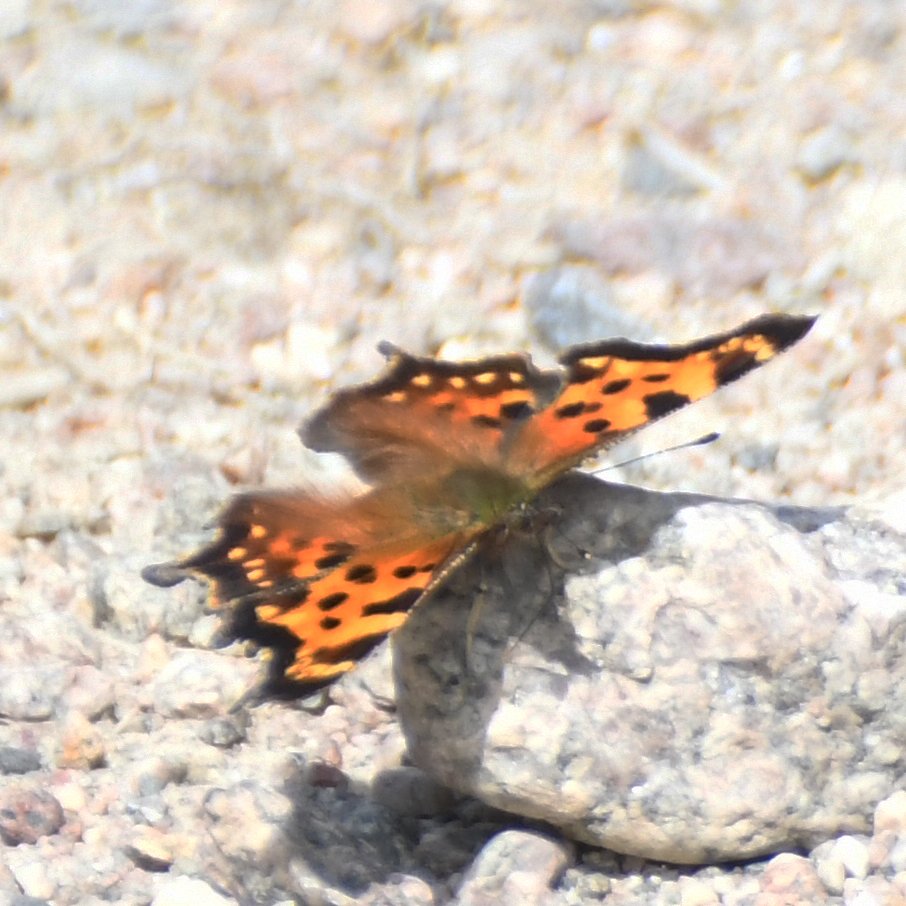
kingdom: Animalia
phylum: Arthropoda
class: Insecta
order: Lepidoptera
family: Nymphalidae
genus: Polygonia
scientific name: Polygonia faunus
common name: Green Comma
